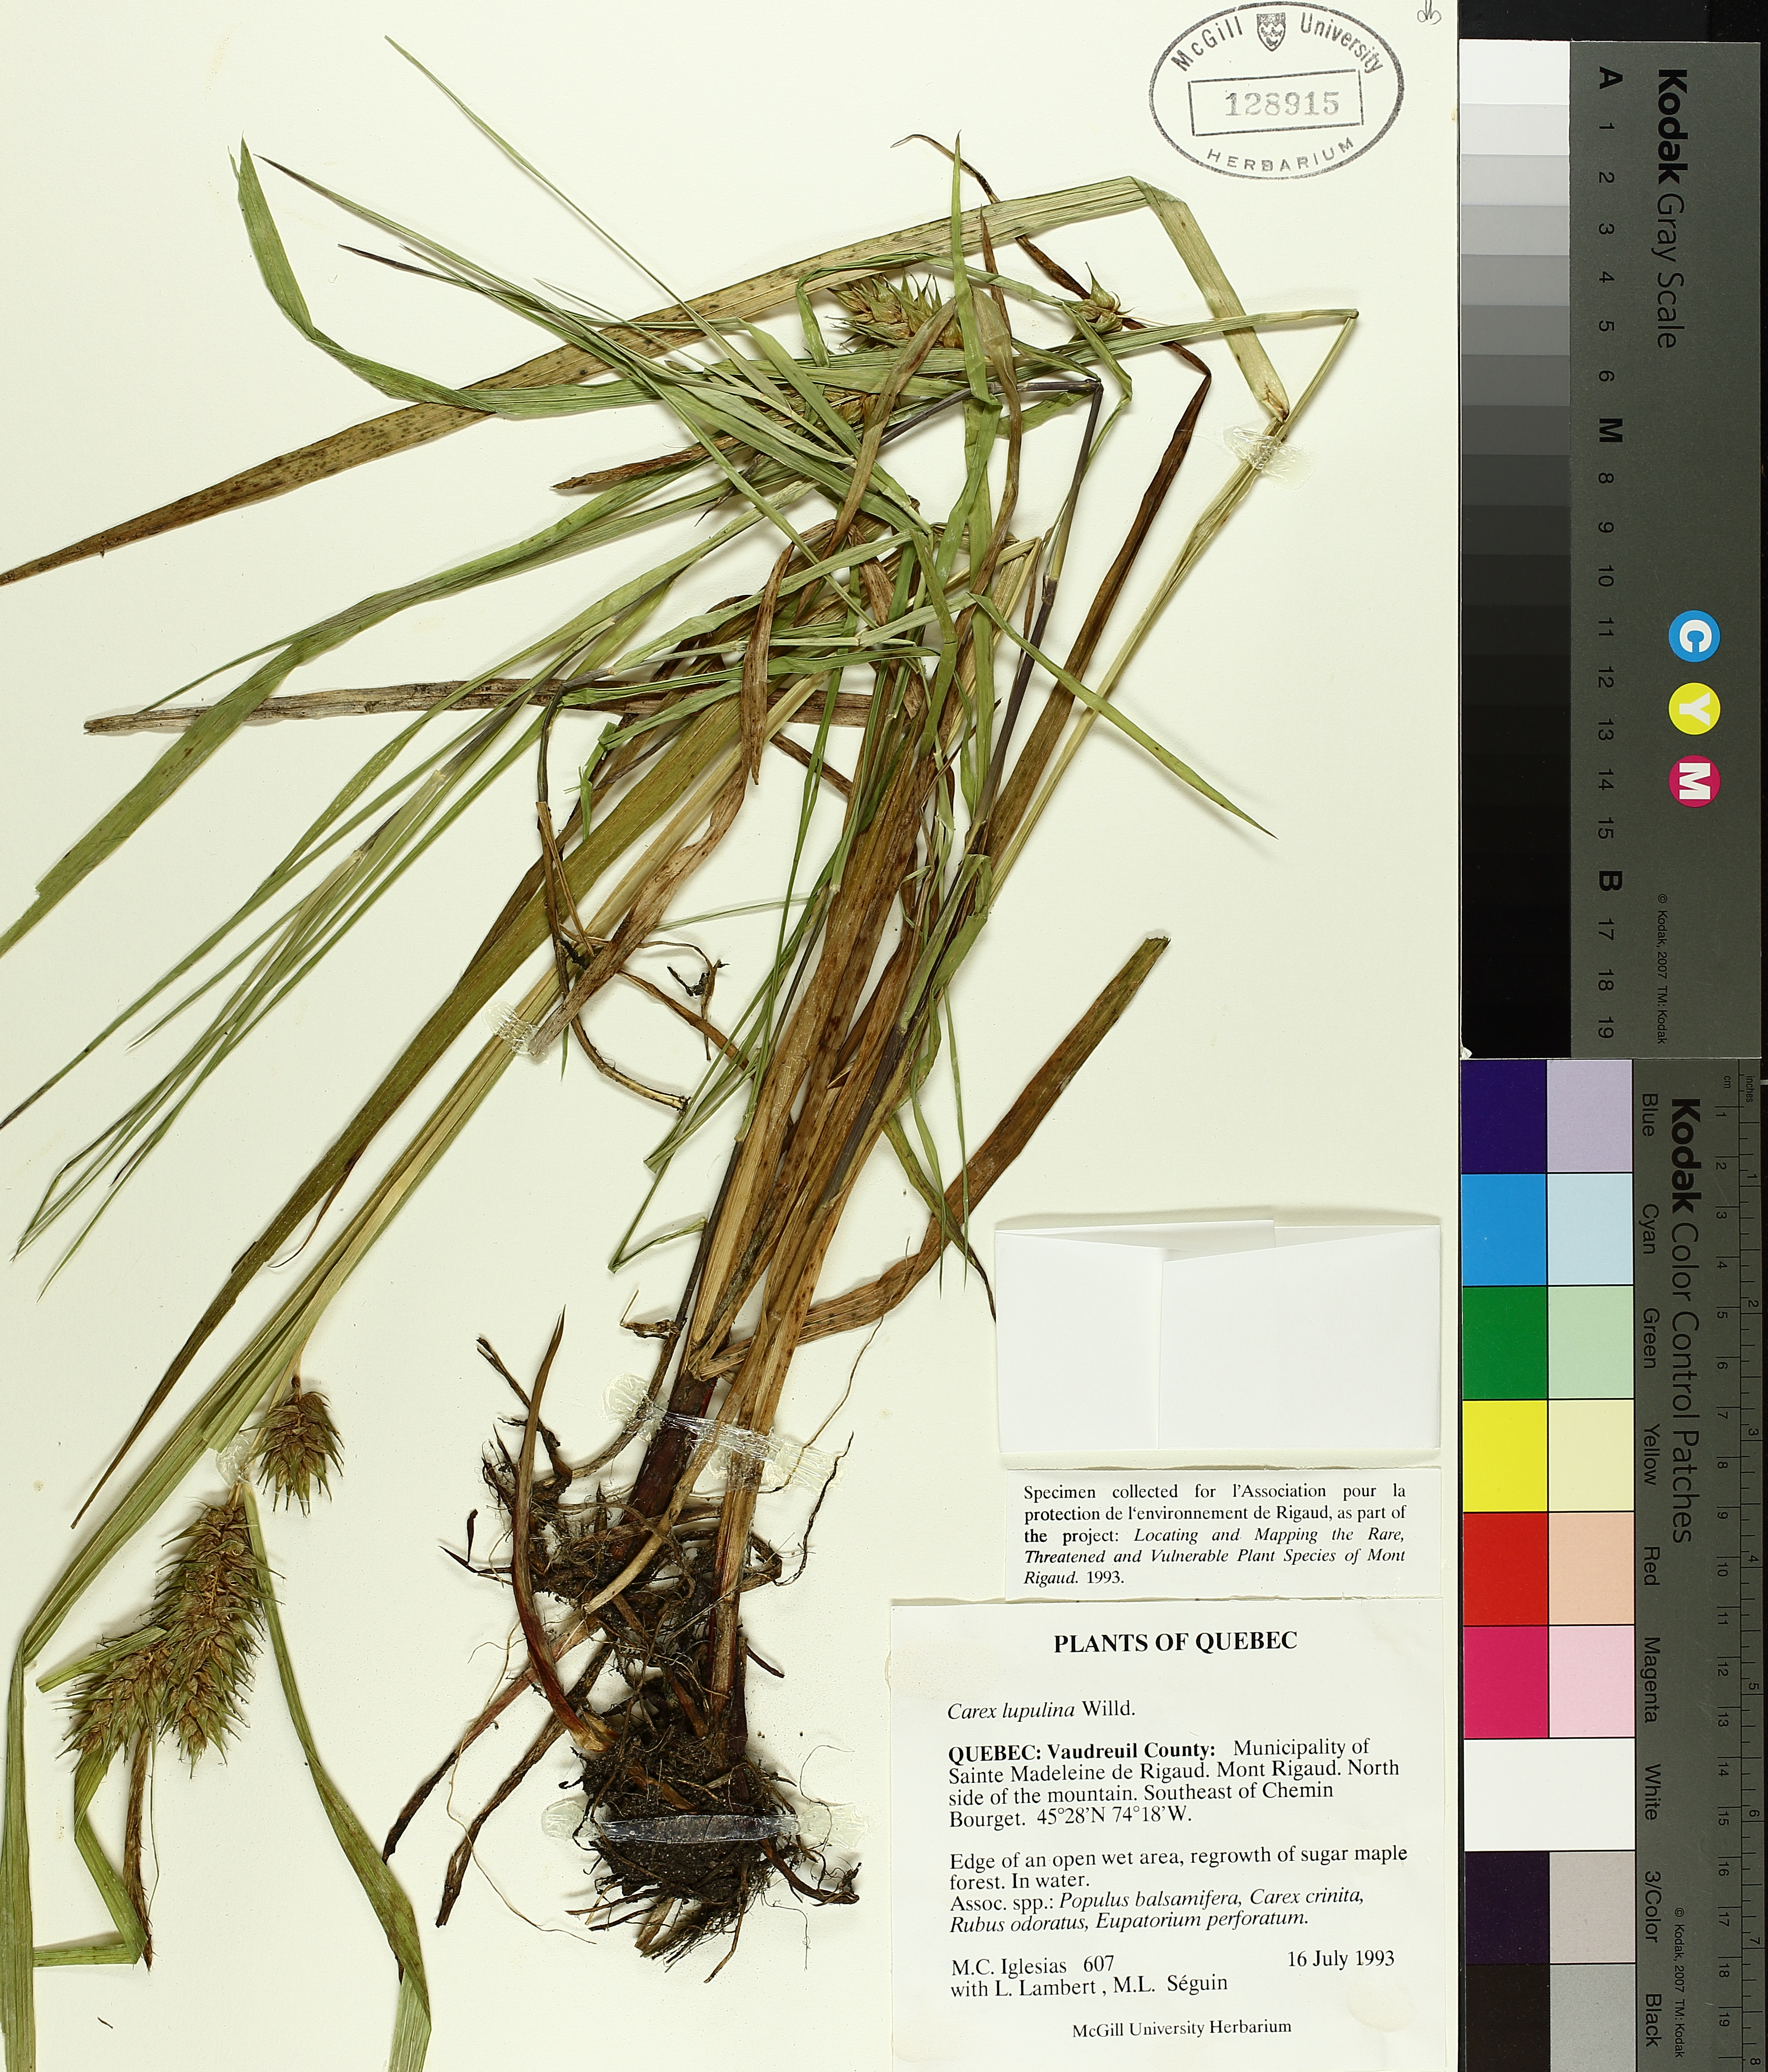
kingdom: Plantae
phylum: Tracheophyta
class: Liliopsida
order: Poales
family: Cyperaceae
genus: Carex
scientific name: Carex lupulina
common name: Hop sedge
